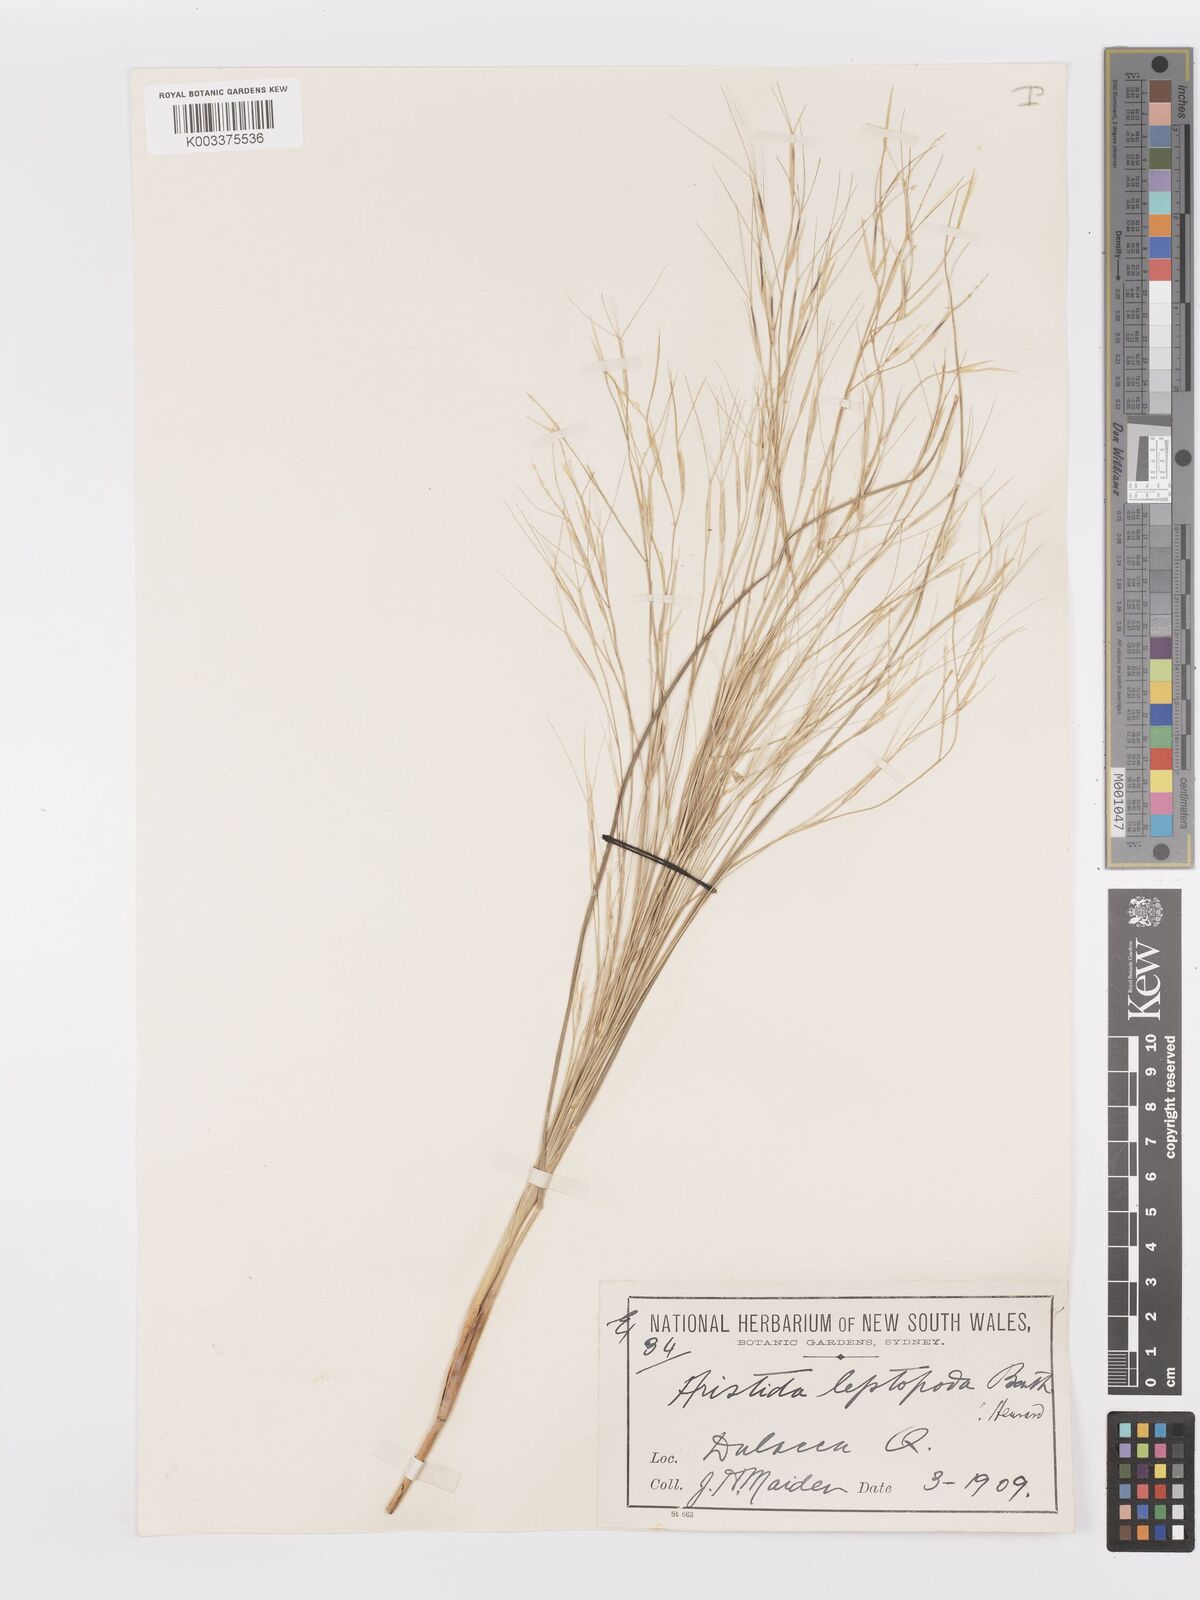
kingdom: Plantae
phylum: Tracheophyta
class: Liliopsida
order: Poales
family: Poaceae
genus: Aristida
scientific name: Aristida leptopoda
